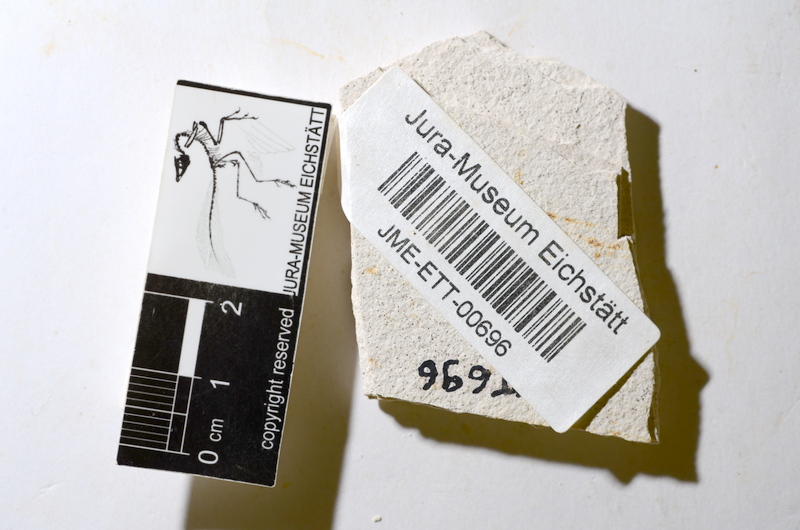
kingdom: Animalia
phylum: Chordata
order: Salmoniformes
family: Orthogonikleithridae
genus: Orthogonikleithrus
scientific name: Orthogonikleithrus hoelli
